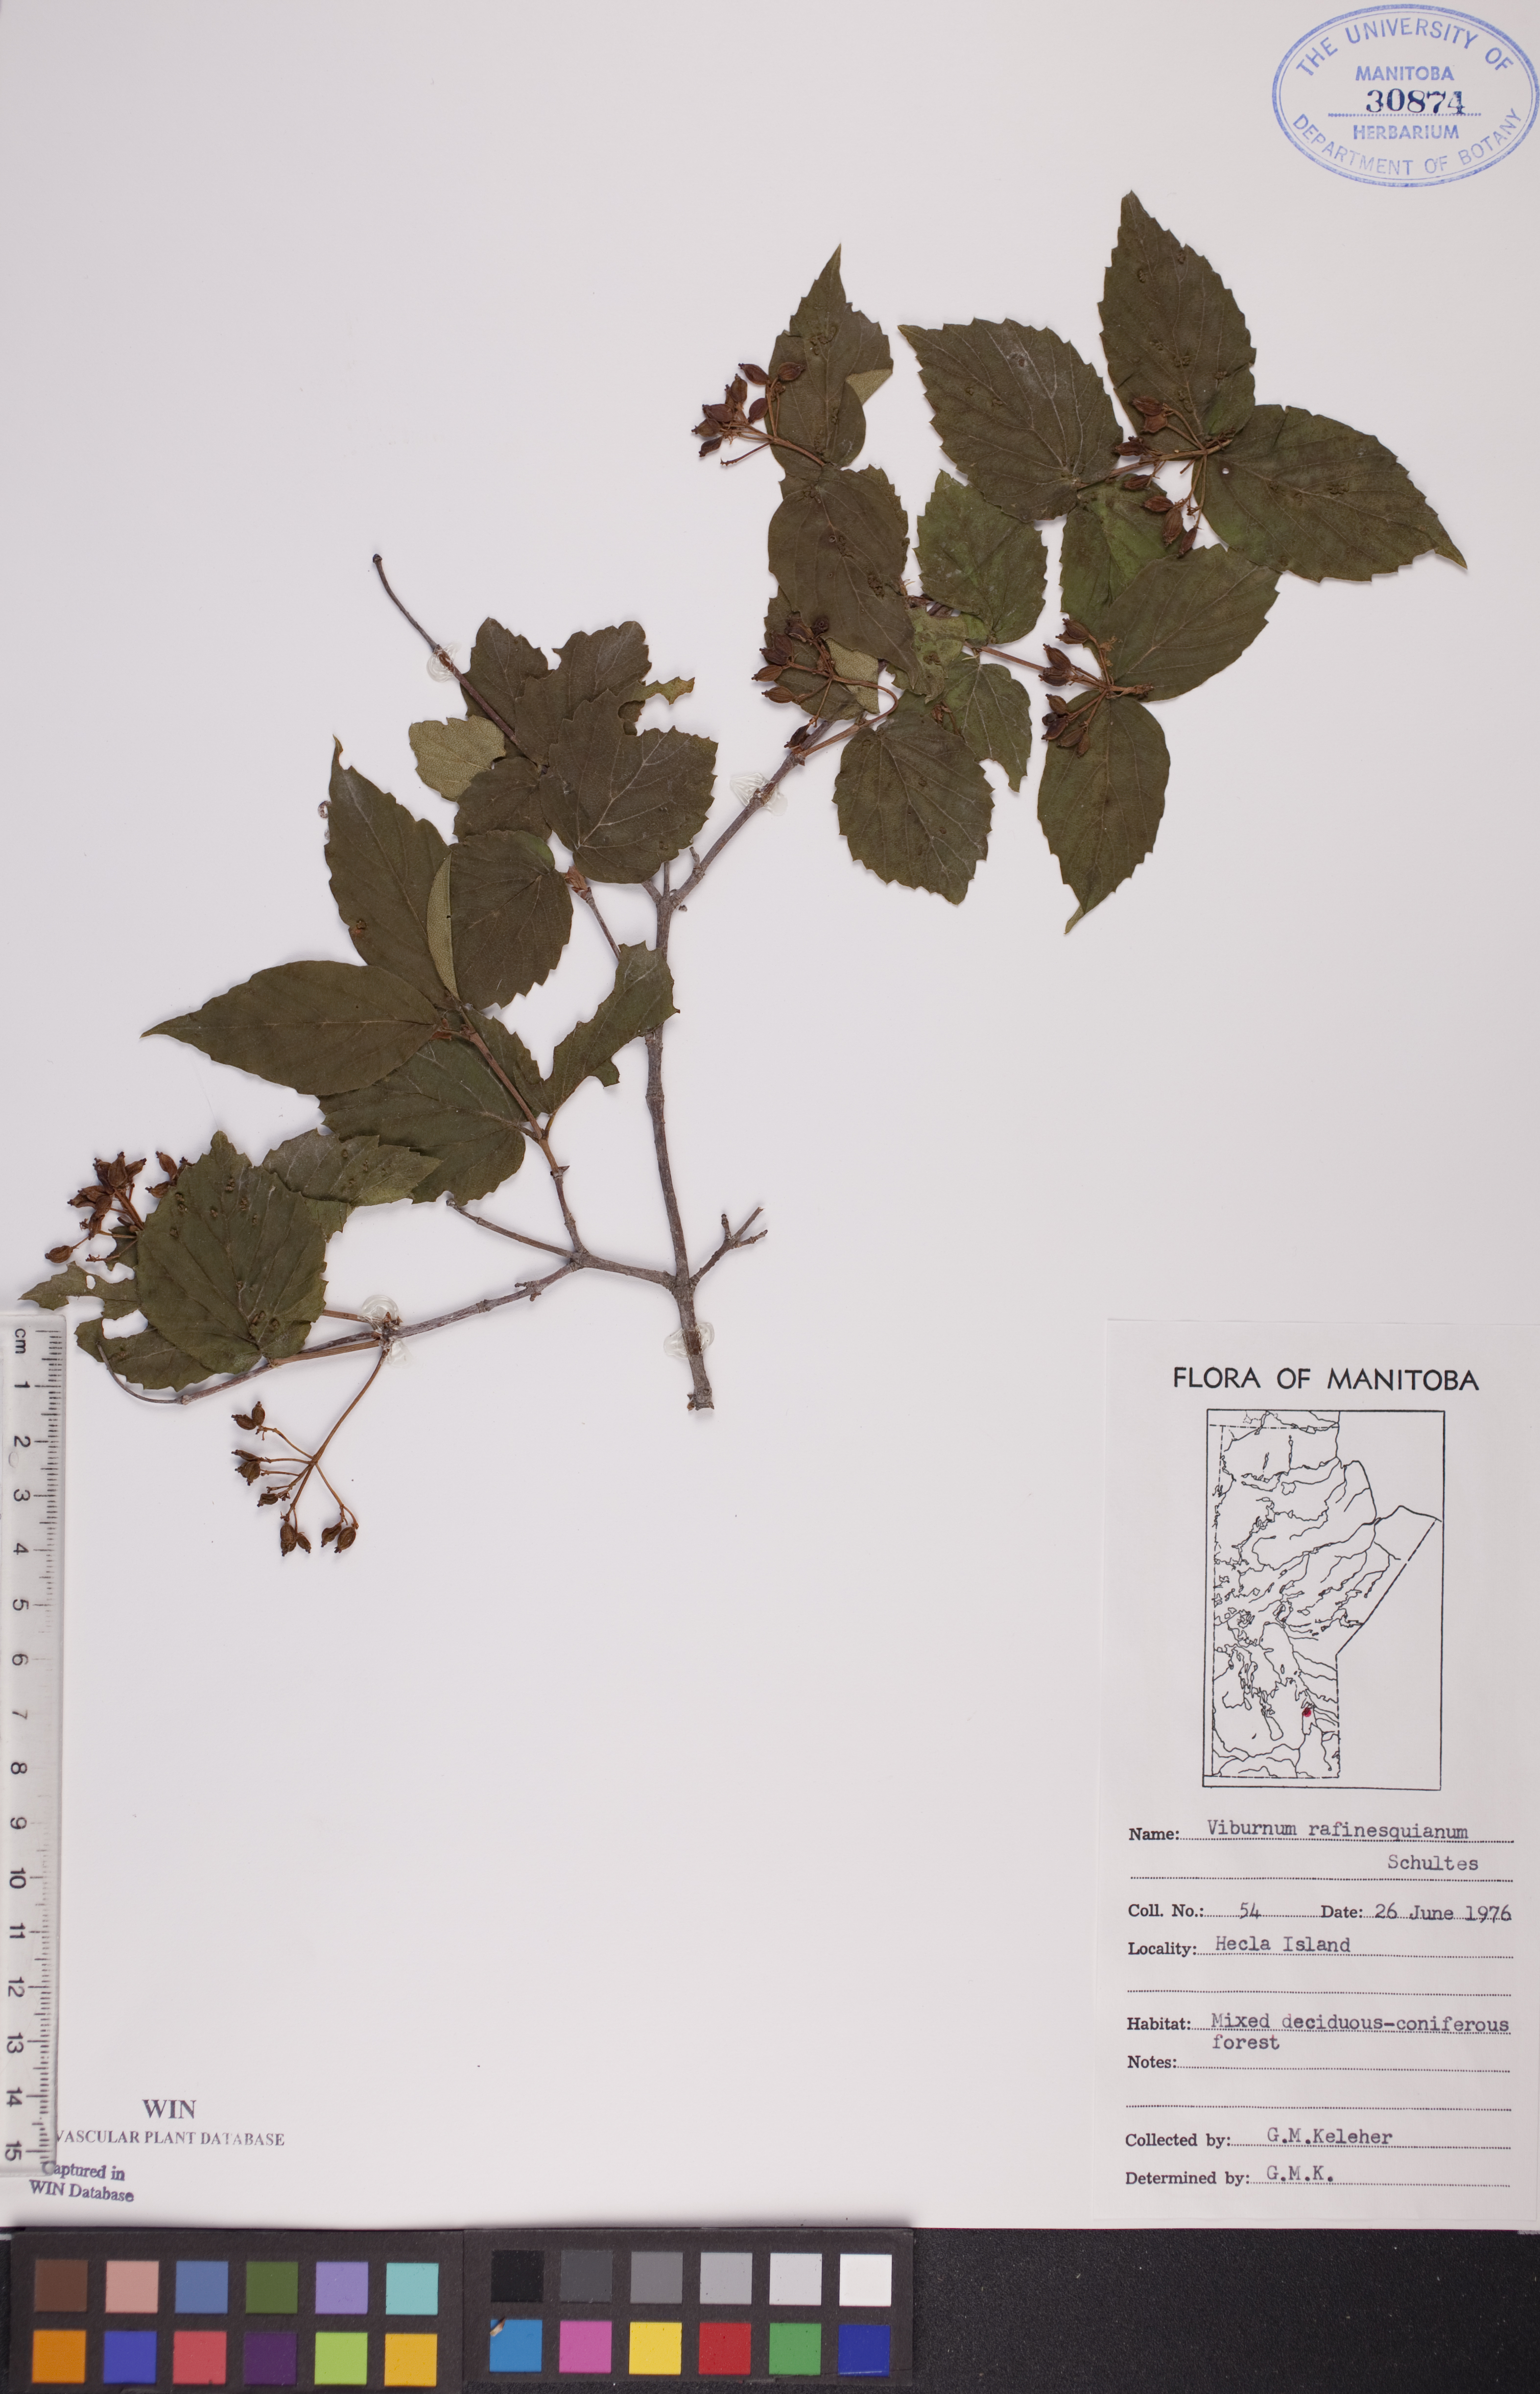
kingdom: Plantae
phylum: Tracheophyta
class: Magnoliopsida
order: Dipsacales
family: Viburnaceae
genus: Viburnum
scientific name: Viburnum rafinesquianum
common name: Downy arrow-wood
